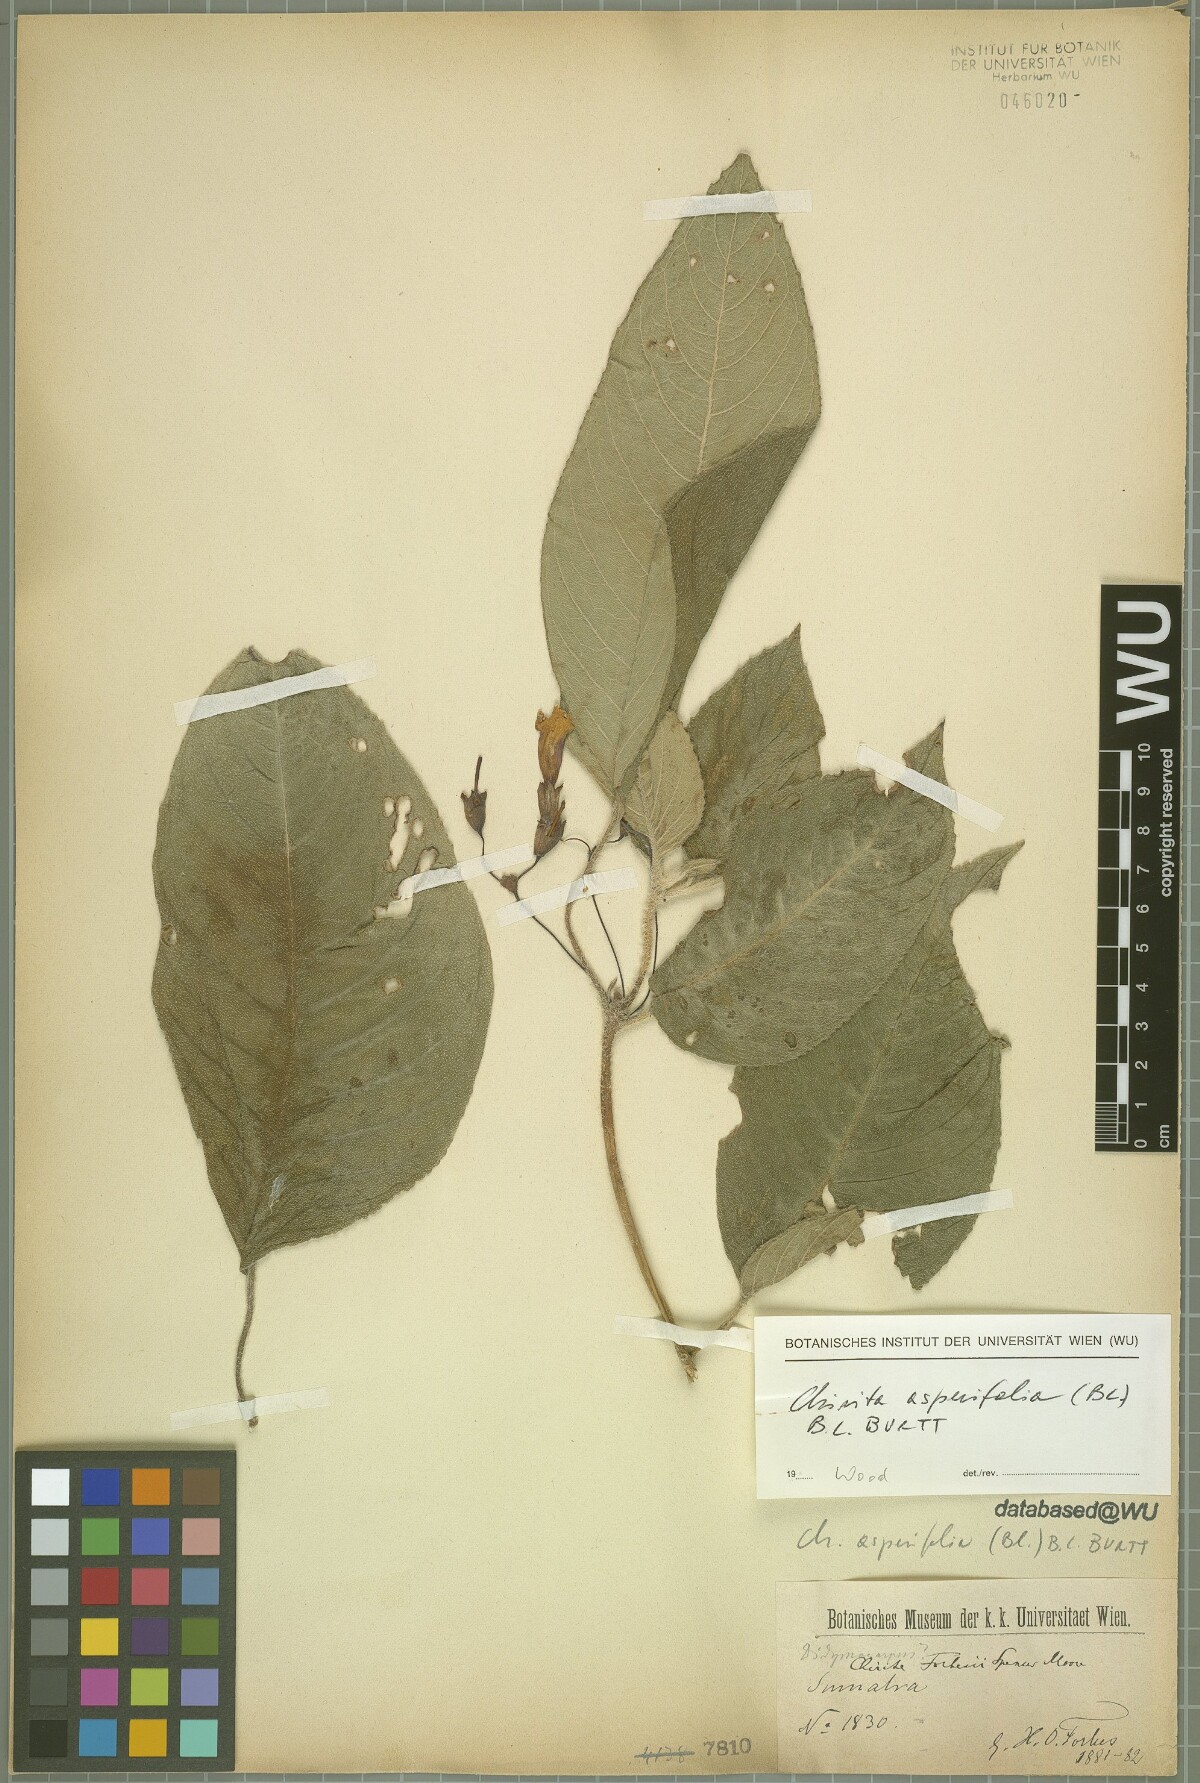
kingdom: Plantae
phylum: Tracheophyta
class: Magnoliopsida
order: Lamiales
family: Gesneriaceae
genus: Liebigia
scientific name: Liebigia barbata
